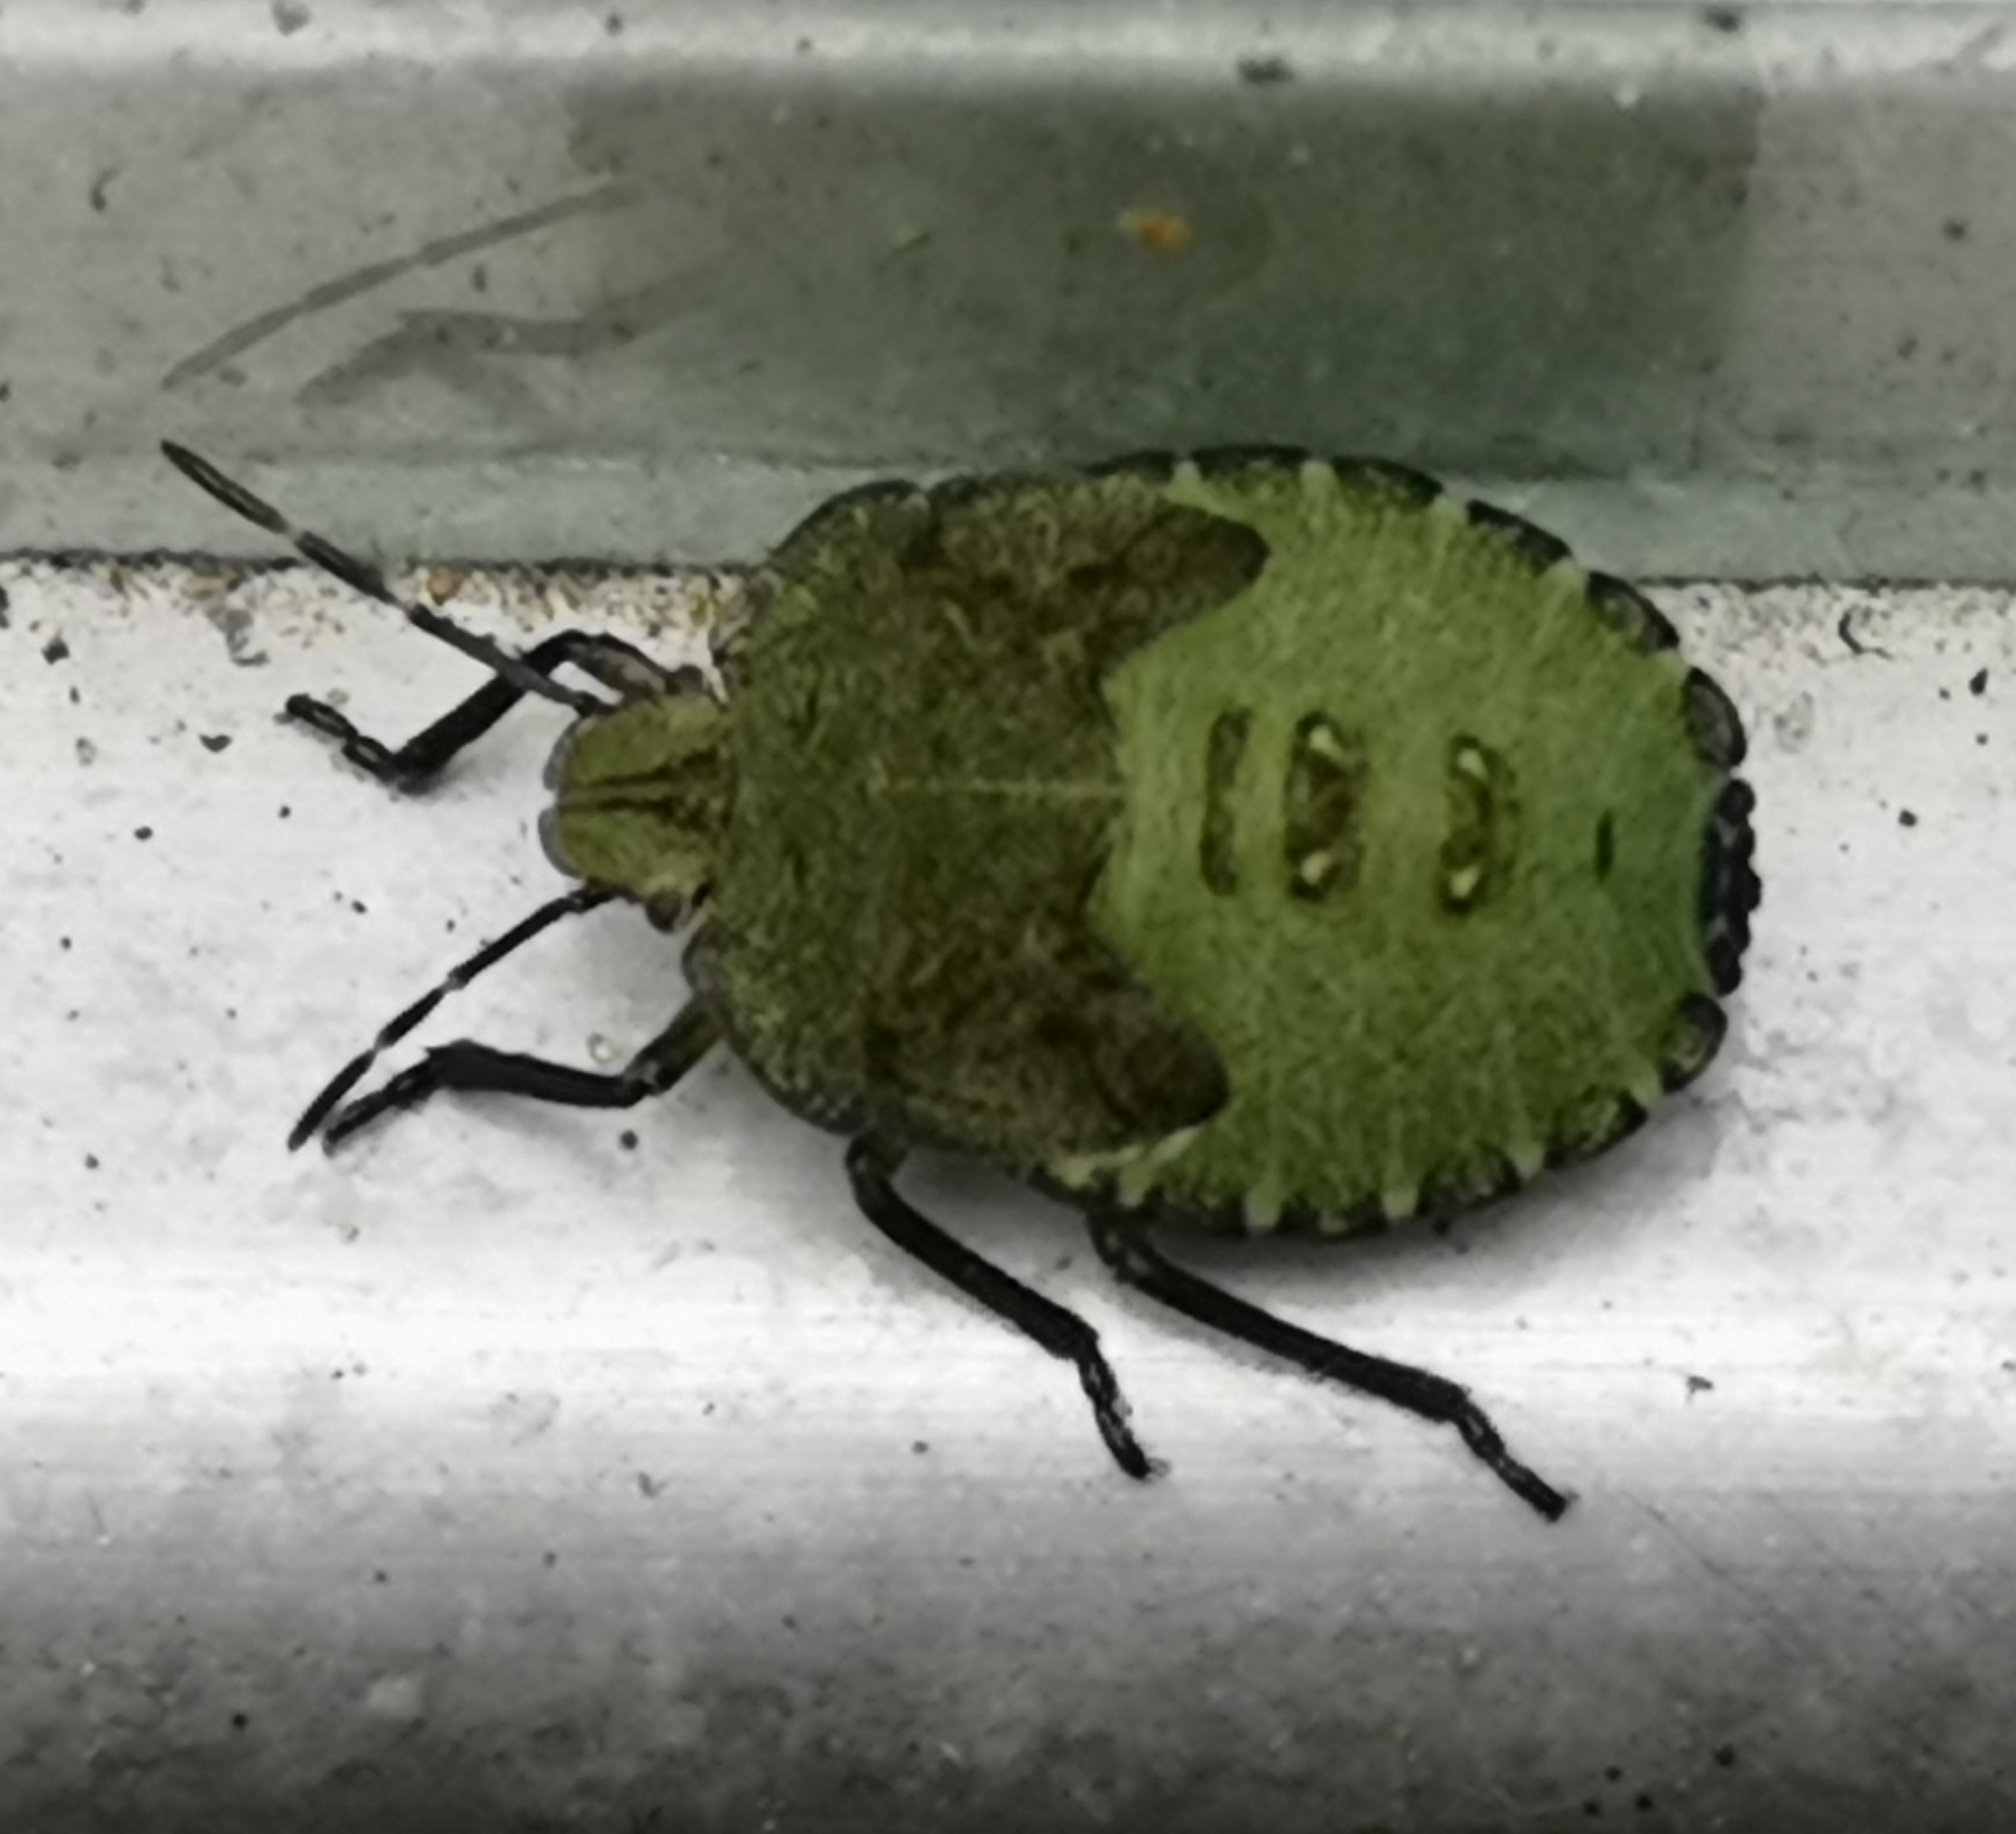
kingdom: Animalia
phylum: Arthropoda
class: Insecta
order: Hemiptera
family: Pentatomidae
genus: Palomena
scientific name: Palomena prasina
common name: Grøn bredtæge
